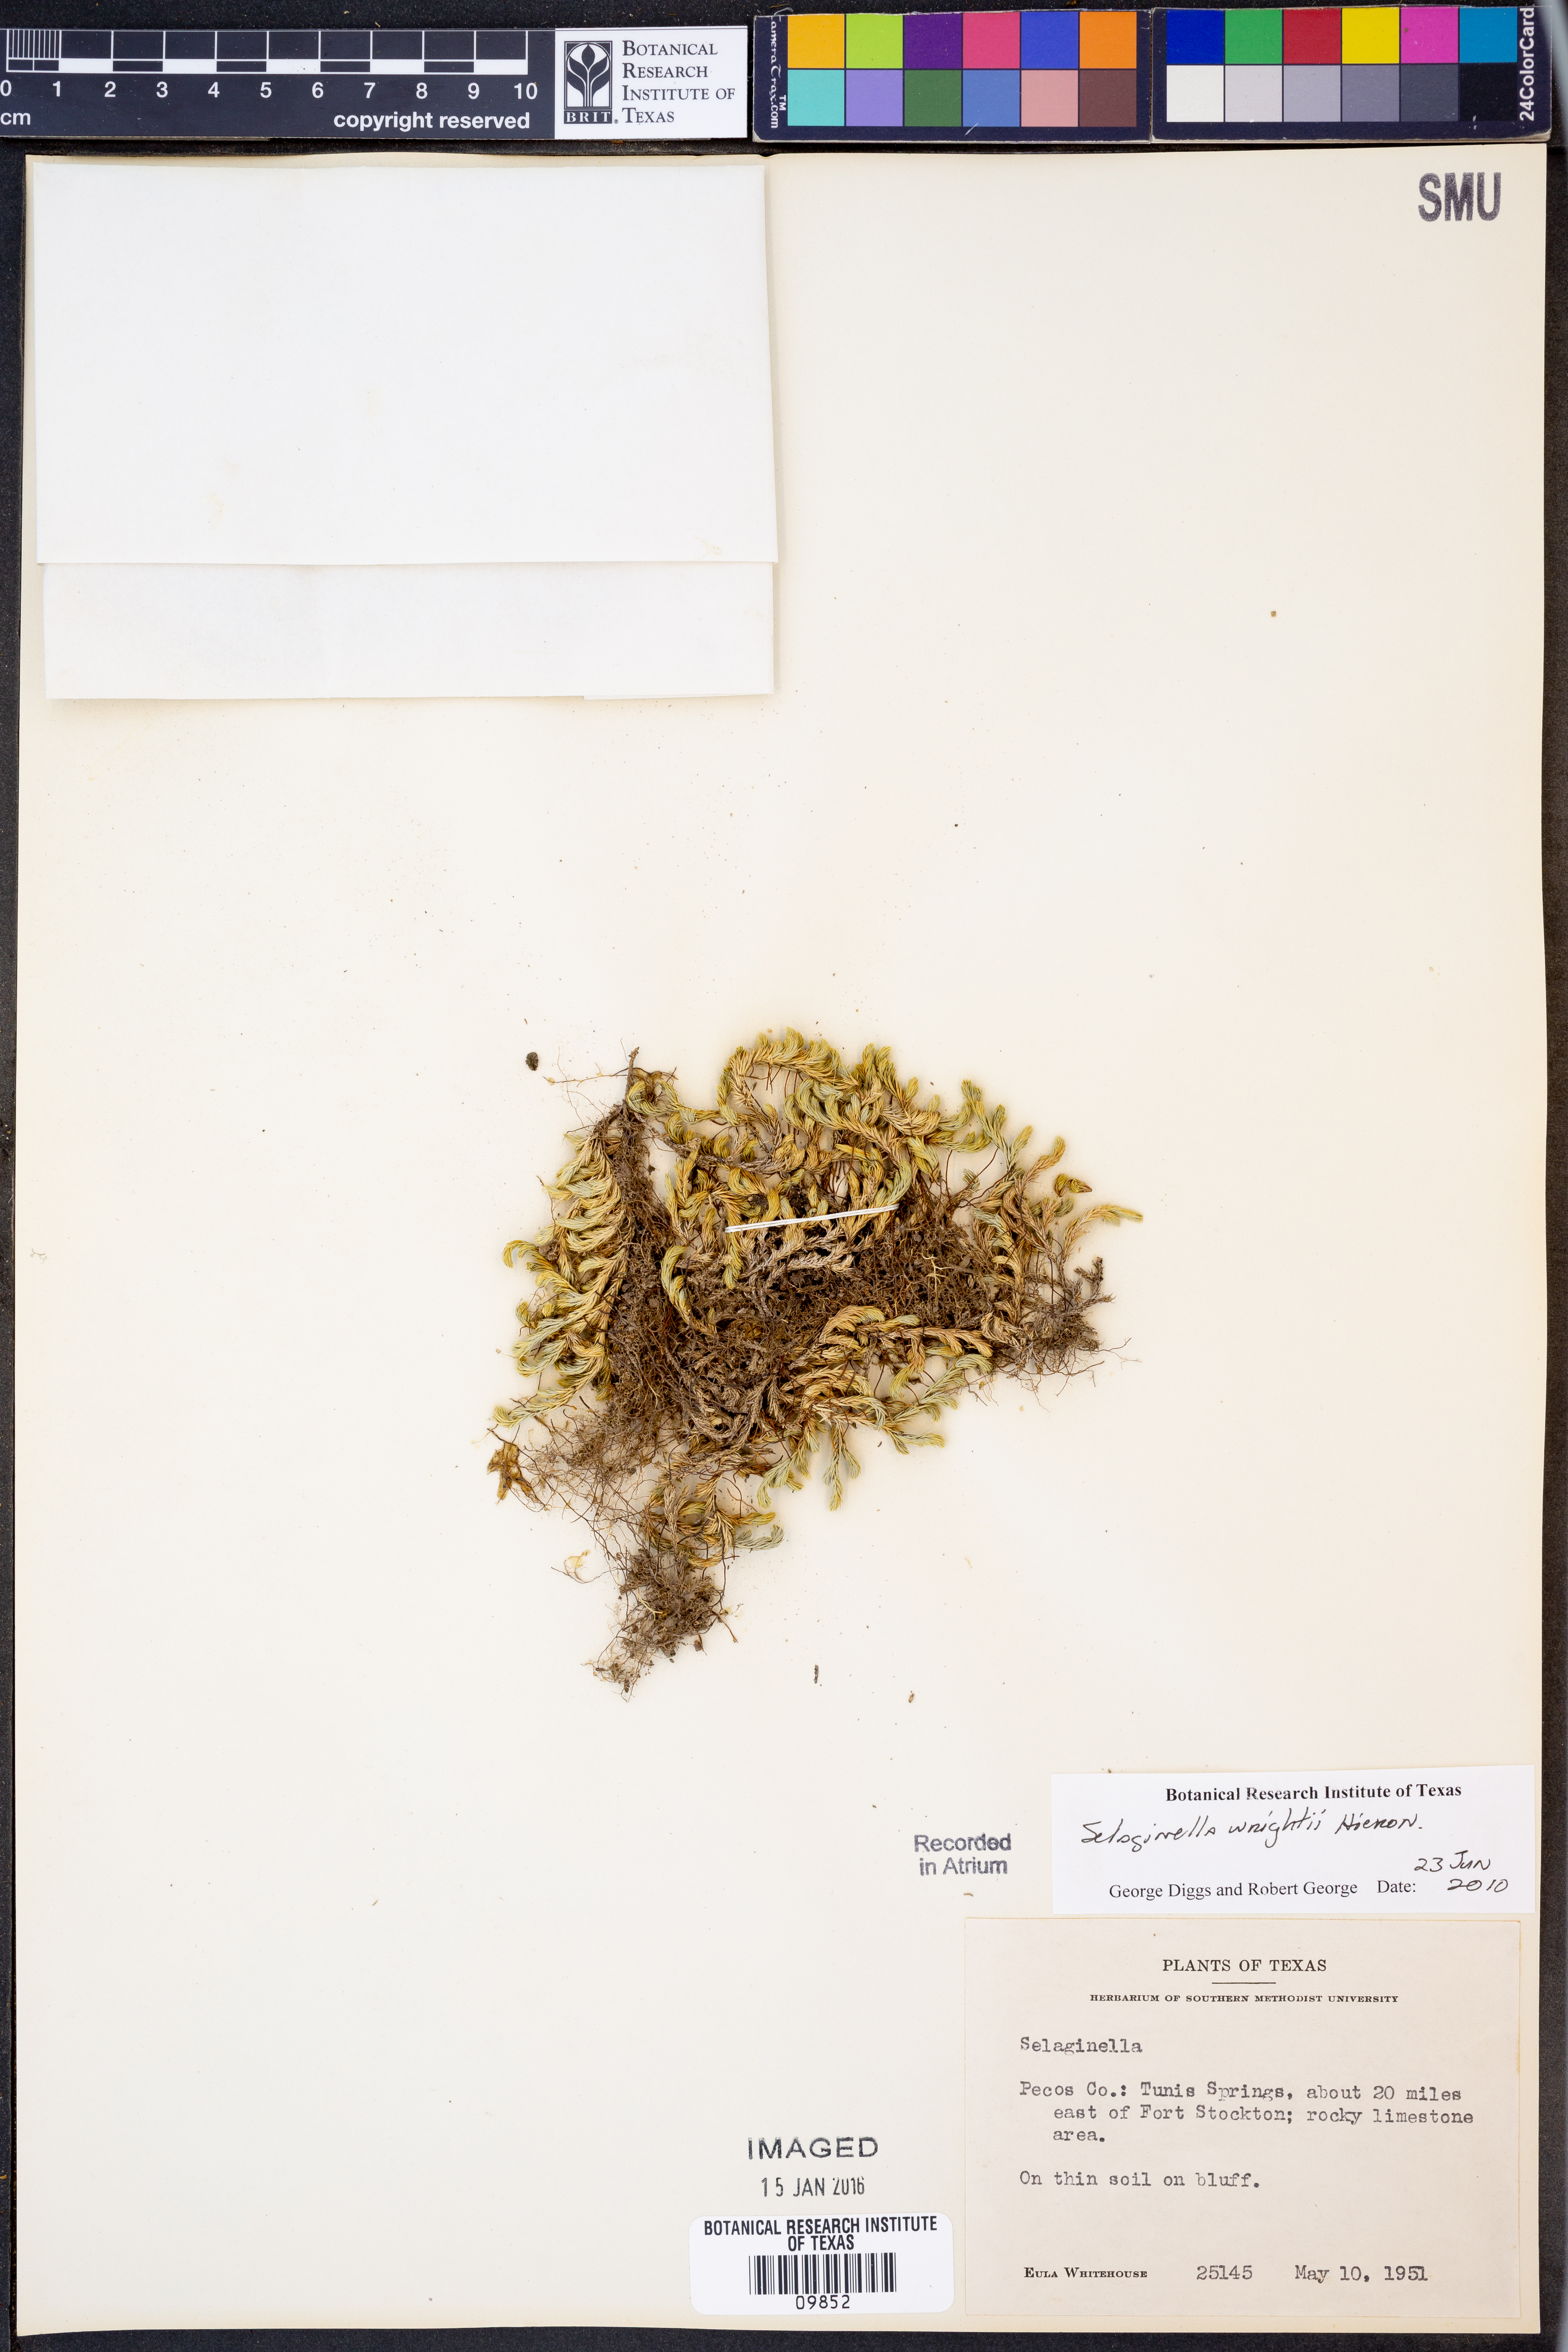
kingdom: Plantae
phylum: Tracheophyta
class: Lycopodiopsida
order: Selaginellales
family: Selaginellaceae
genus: Selaginella
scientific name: Selaginella wrightii
